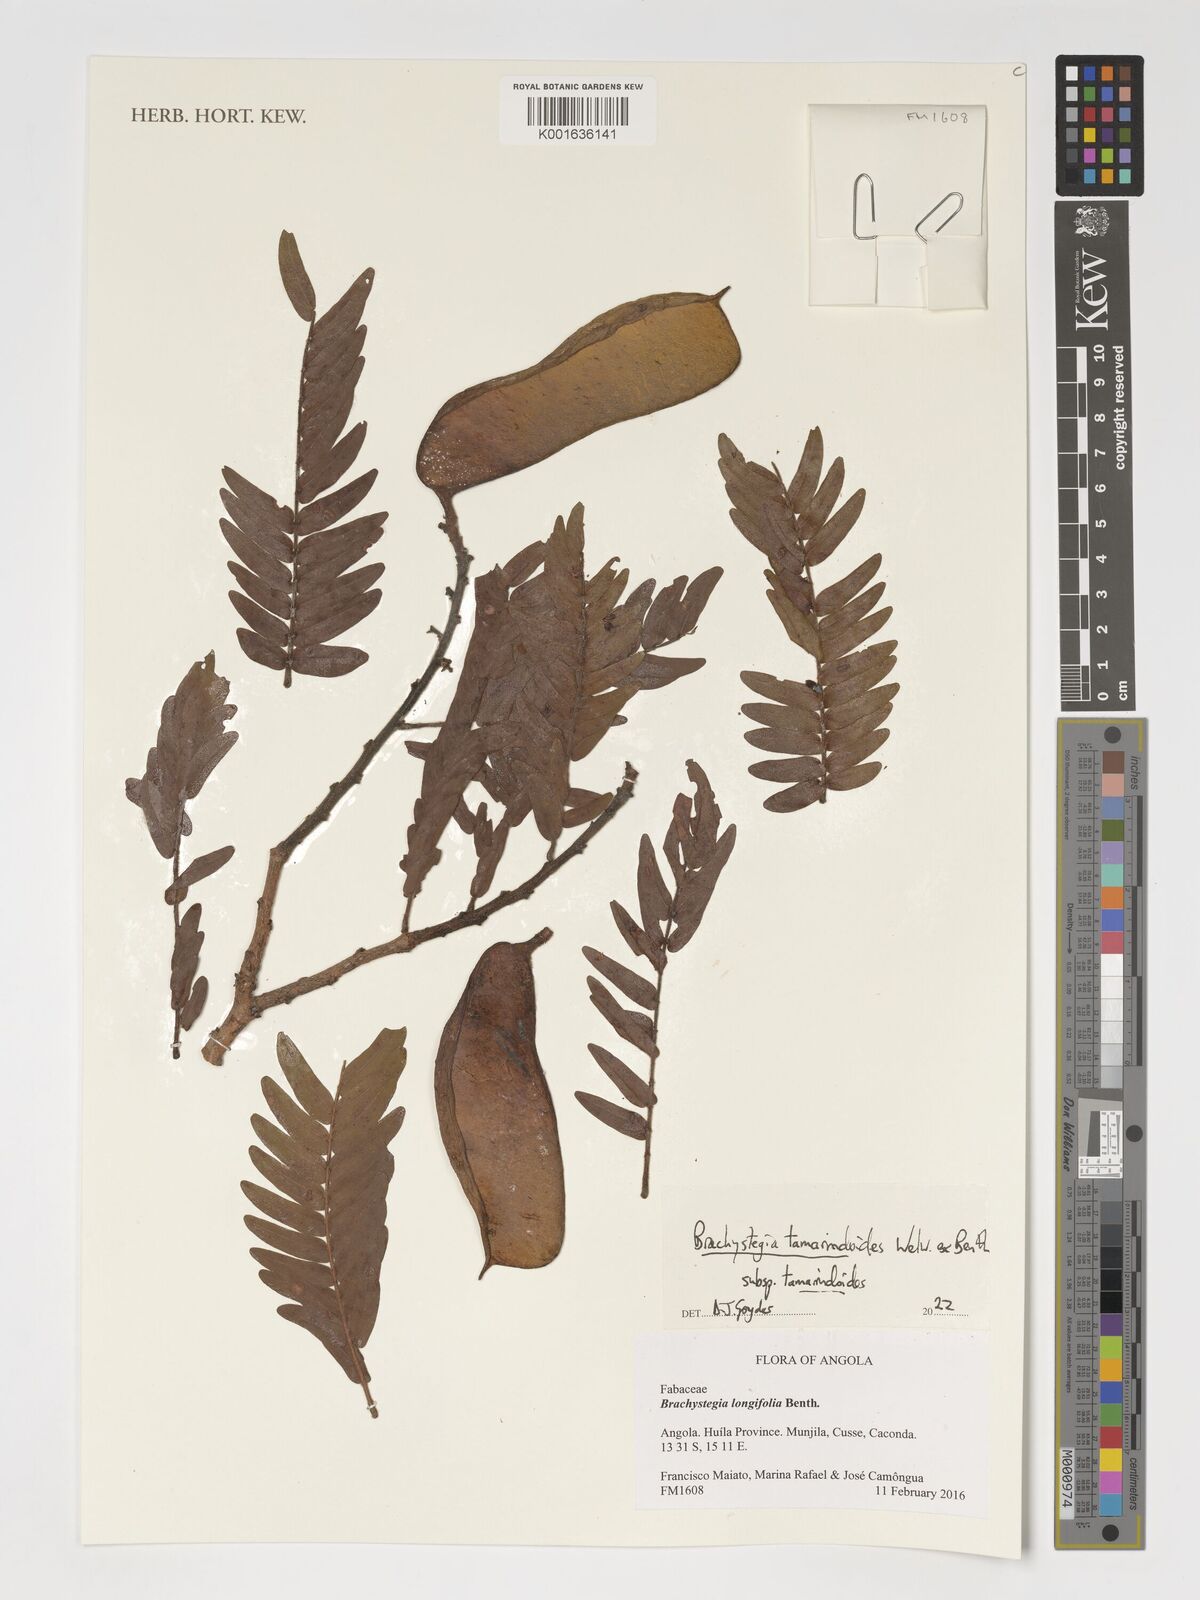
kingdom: Plantae
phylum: Tracheophyta
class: Magnoliopsida
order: Fabales
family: Fabaceae
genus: Brachystegia
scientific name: Brachystegia tamarindoides
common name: Mountain acacia
